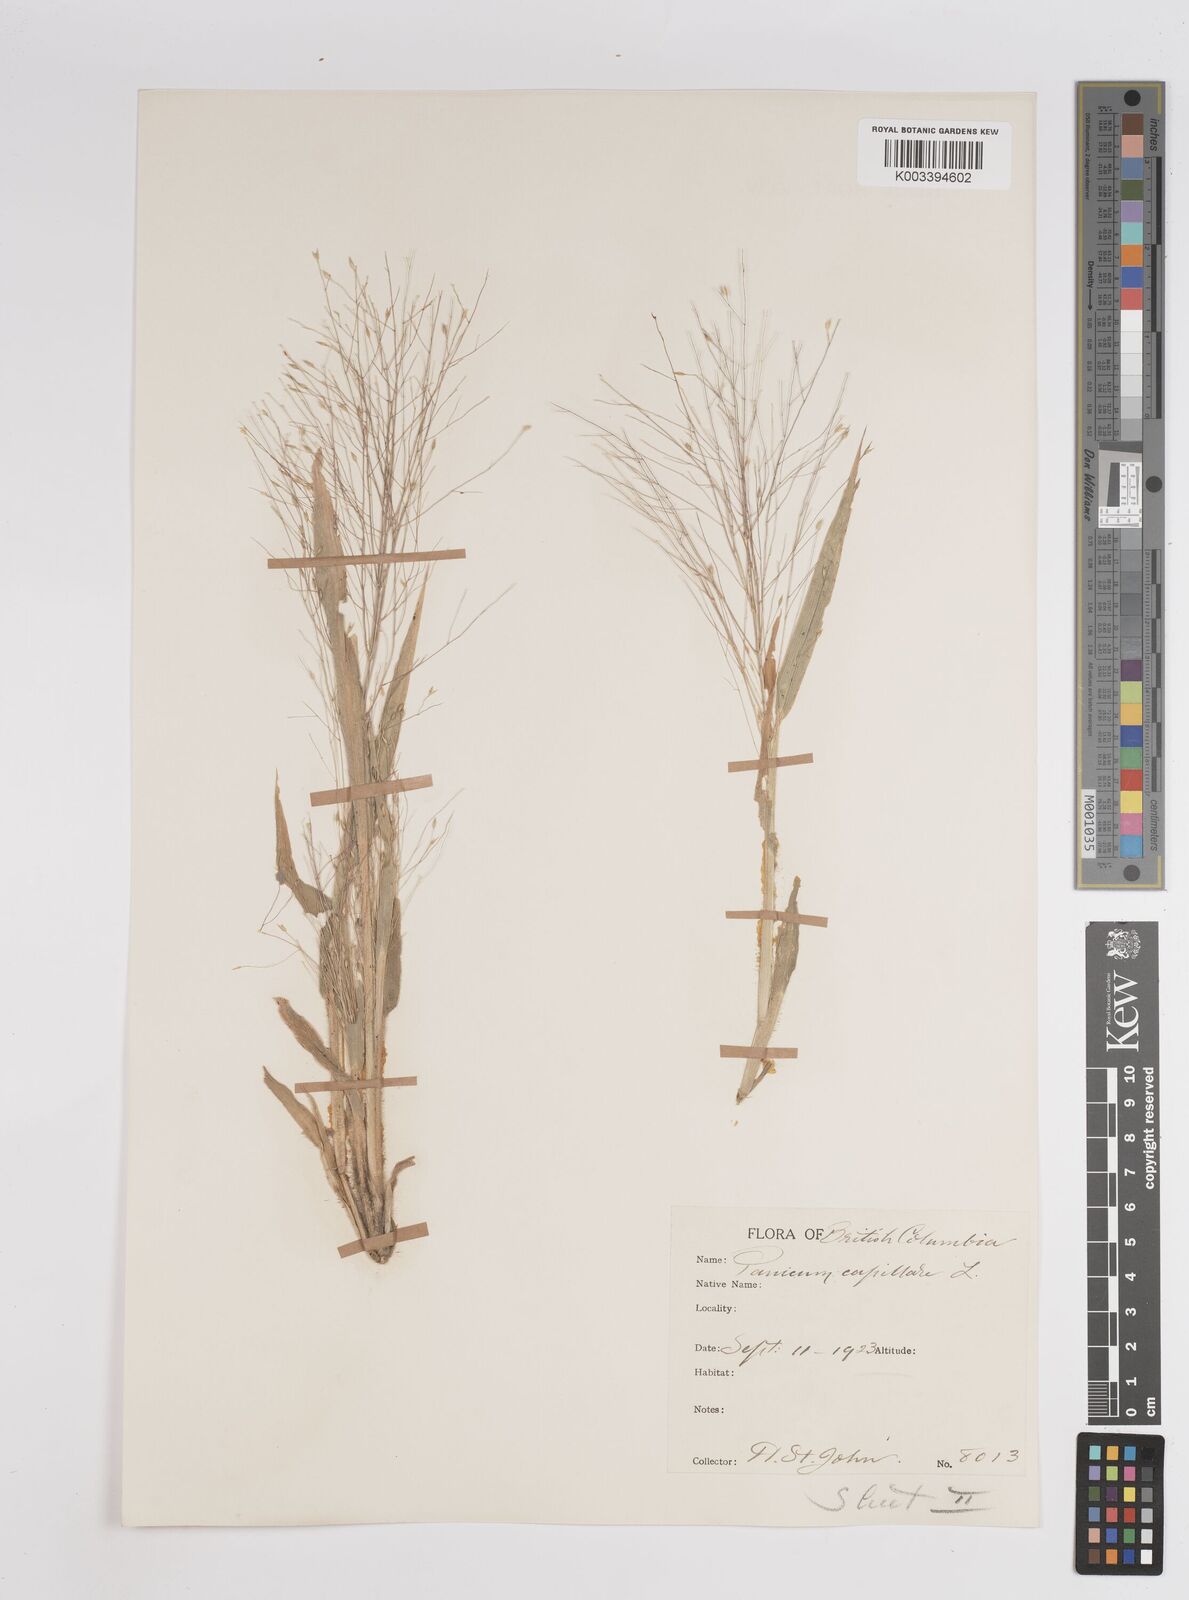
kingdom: Plantae
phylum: Tracheophyta
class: Liliopsida
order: Poales
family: Poaceae
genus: Panicum
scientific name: Panicum capillare
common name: Witch-grass
